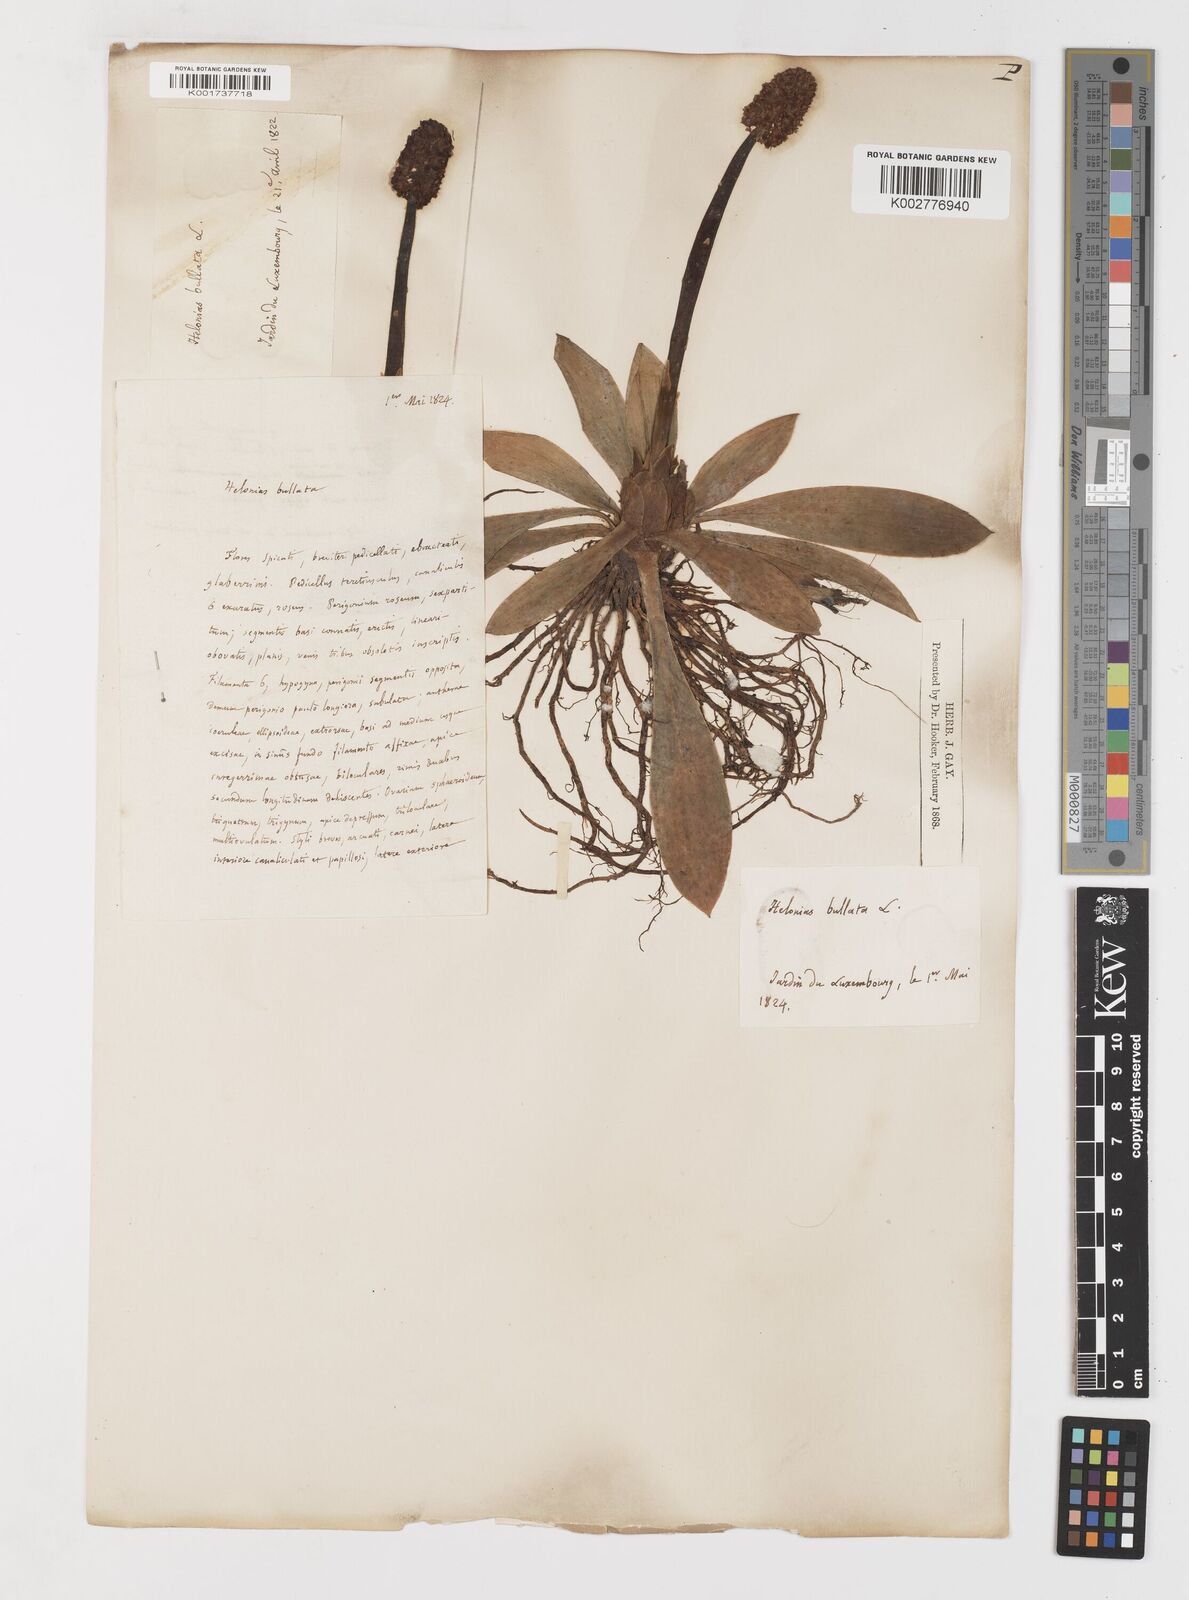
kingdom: Plantae
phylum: Tracheophyta
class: Liliopsida
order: Liliales
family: Melanthiaceae
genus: Helonias
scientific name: Helonias bullata
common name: Swamp-pink
